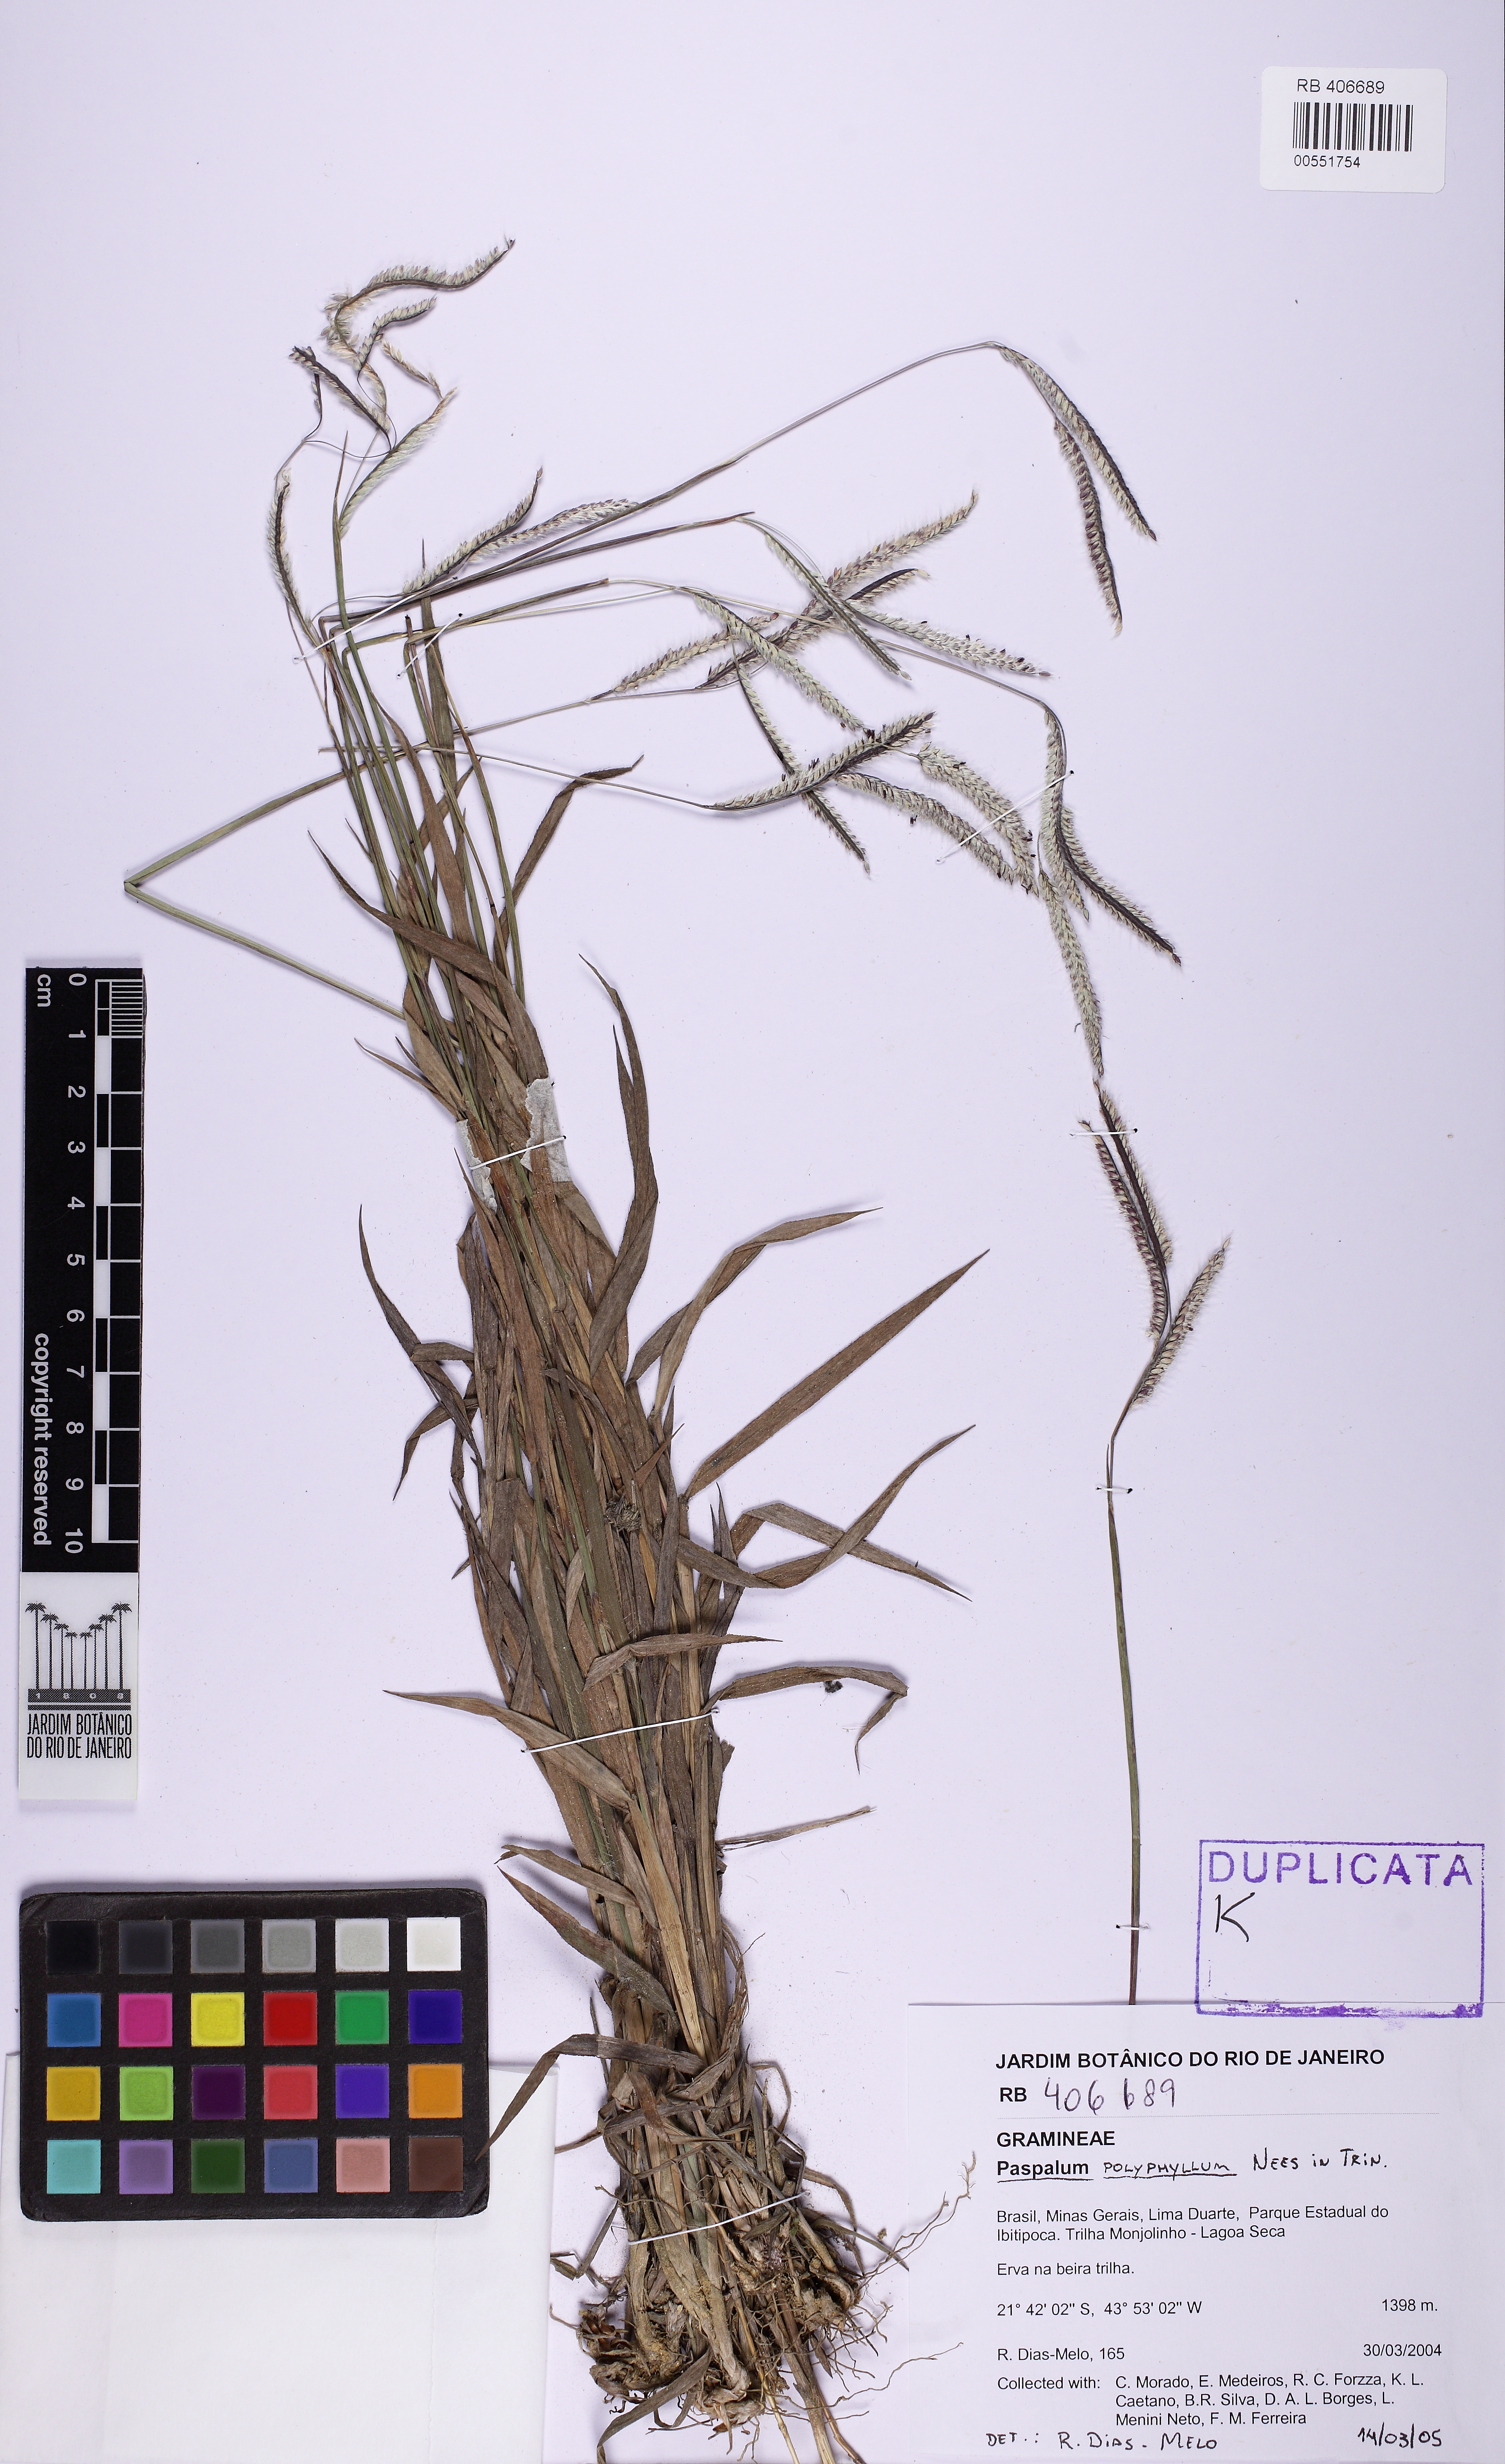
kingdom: Plantae
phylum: Tracheophyta
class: Liliopsida
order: Poales
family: Poaceae
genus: Paspalum
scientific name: Paspalum polyphyllum
